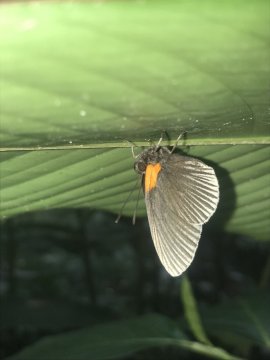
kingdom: Animalia
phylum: Arthropoda
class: Insecta
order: Lepidoptera
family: Riodinidae
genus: Hades
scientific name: Hades noctula
